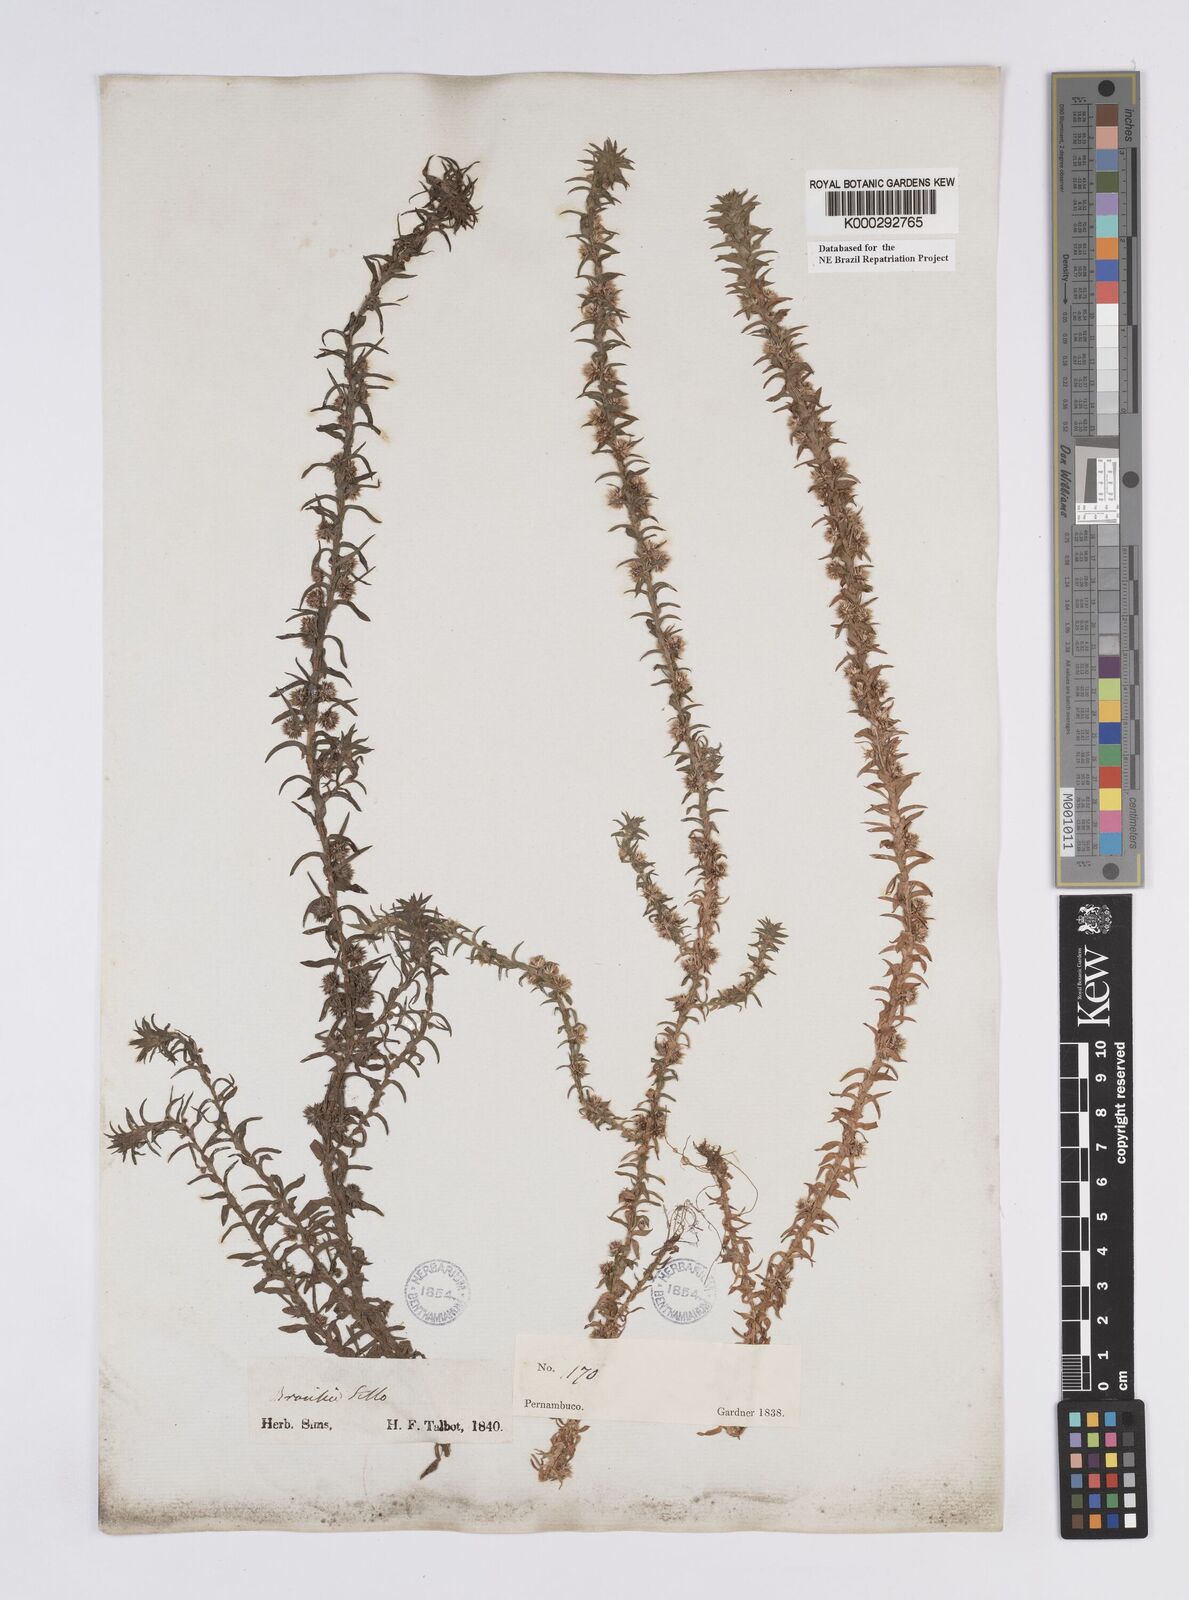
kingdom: Plantae
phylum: Tracheophyta
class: Liliopsida
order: Poales
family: Eriocaulaceae
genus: Paepalanthus
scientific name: Paepalanthus
